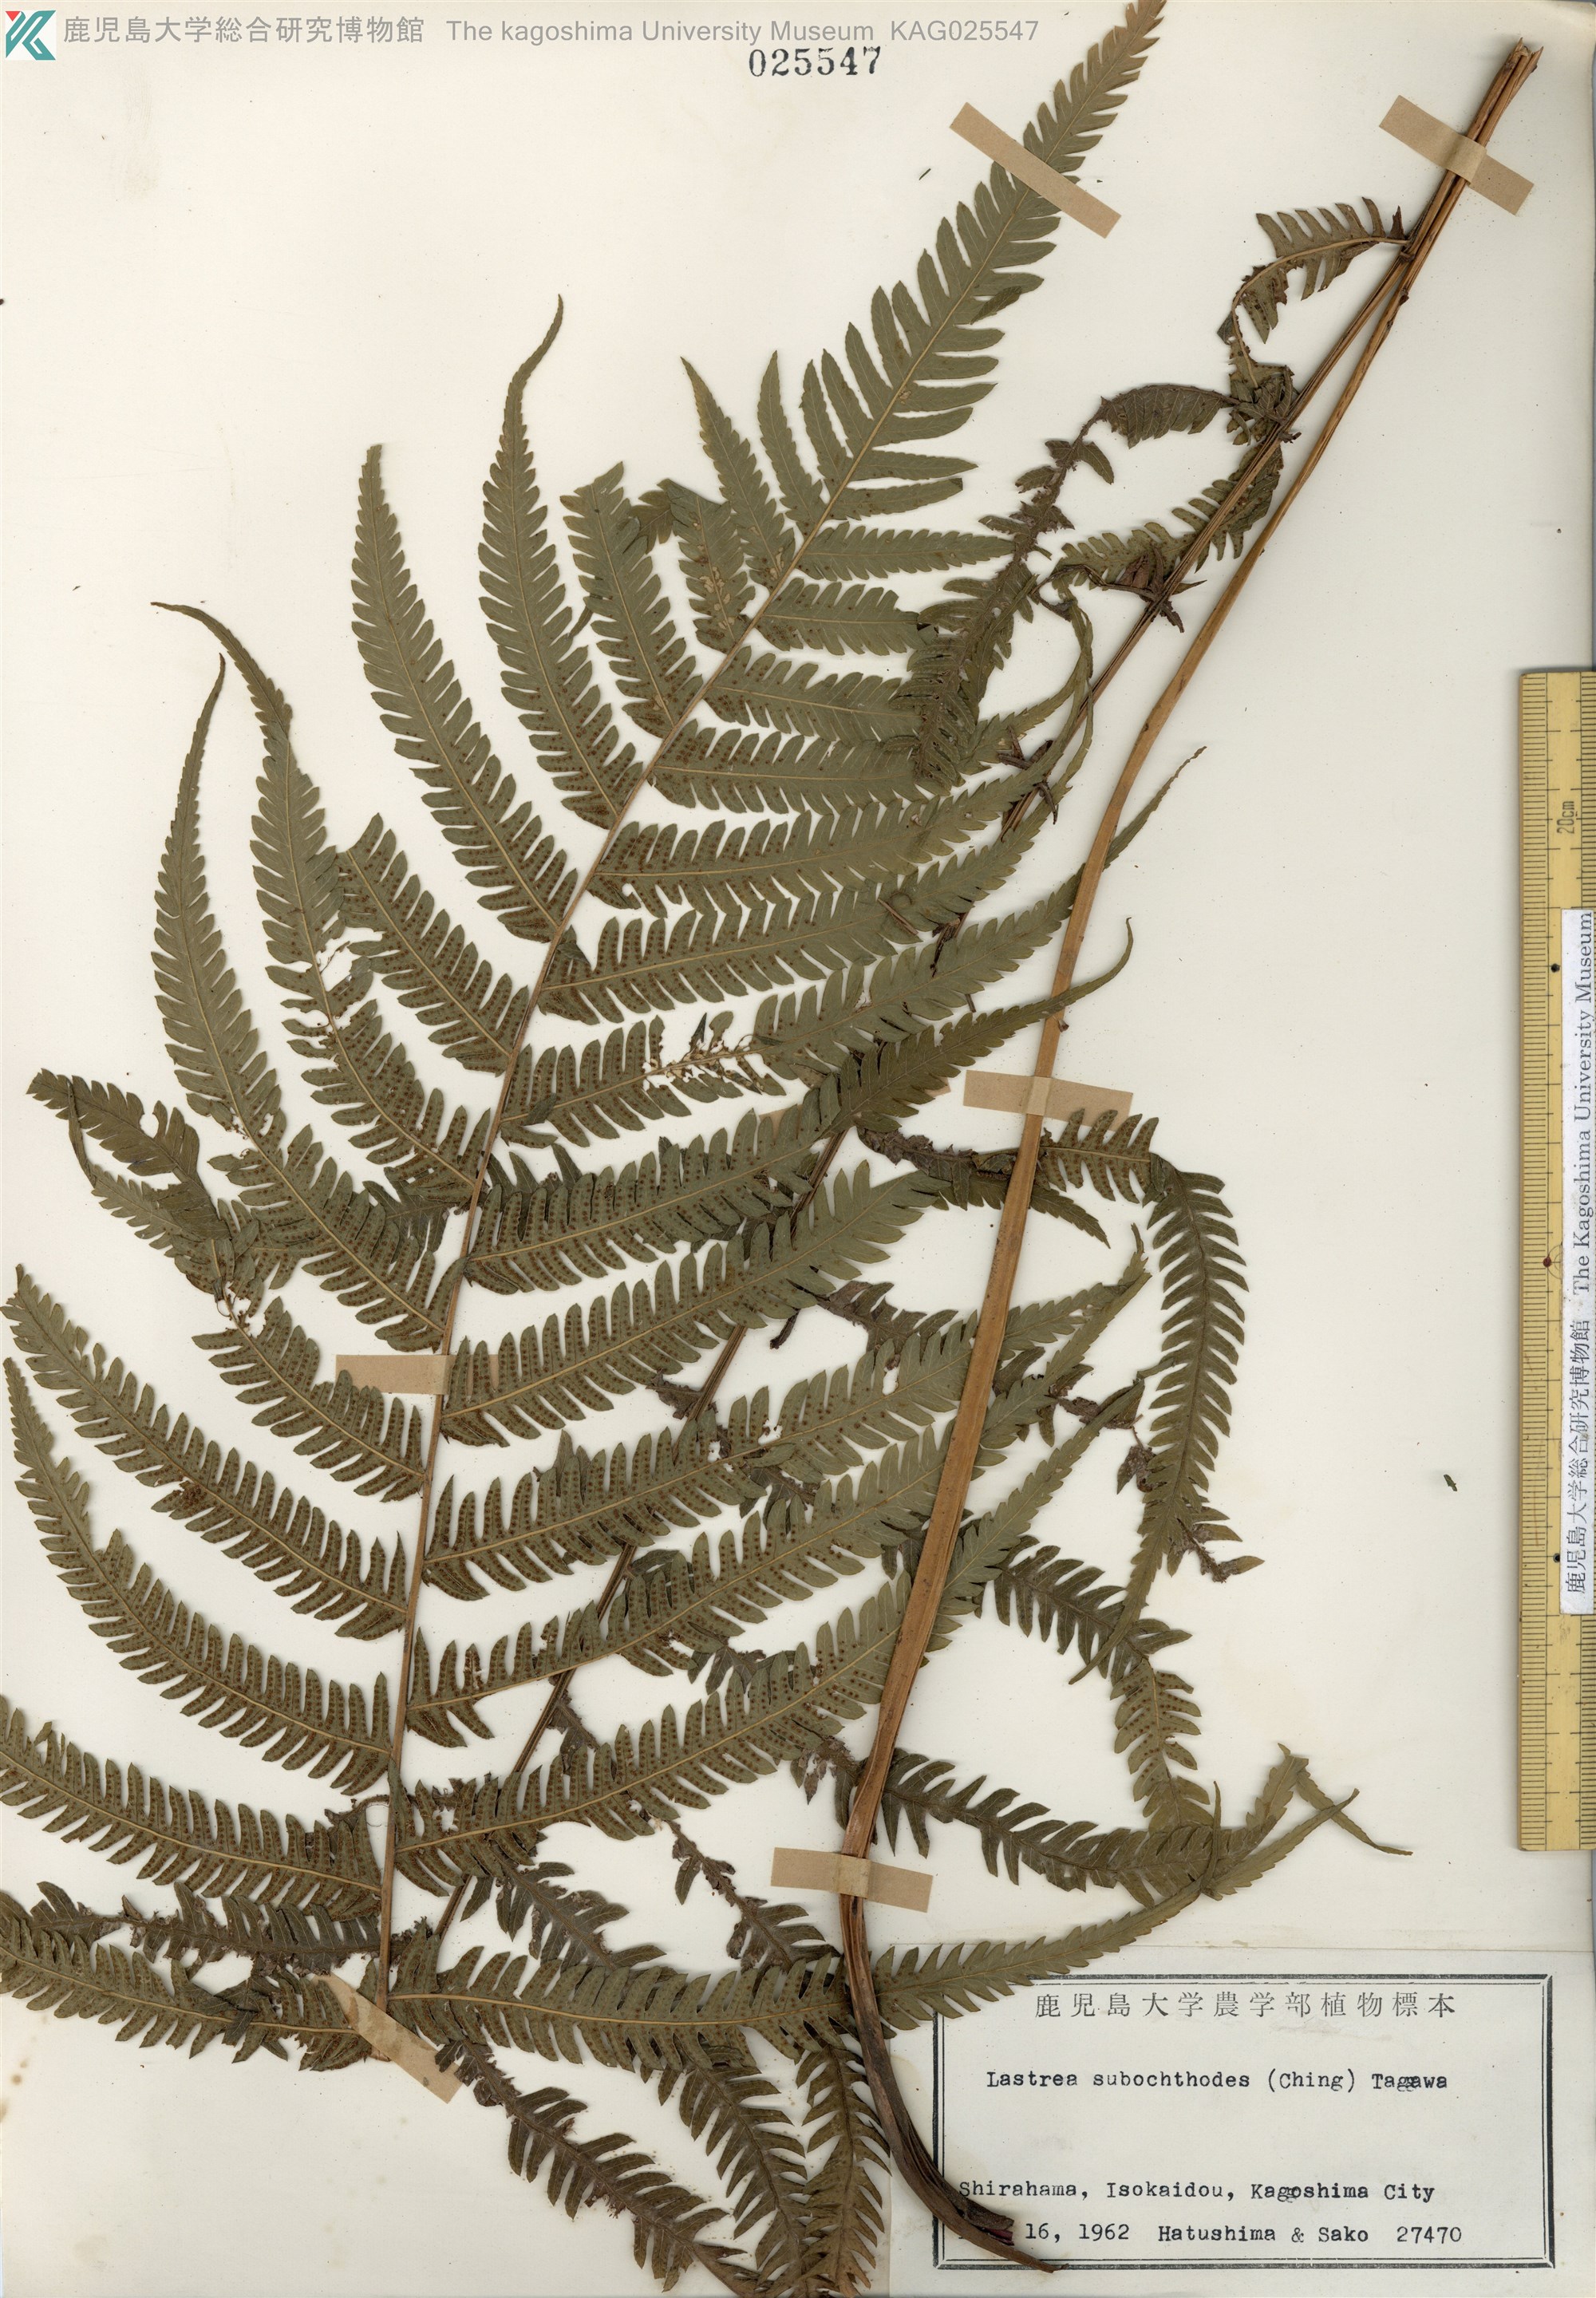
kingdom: Plantae
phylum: Tracheophyta
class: Polypodiopsida
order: Polypodiales
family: Thelypteridaceae
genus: Pseudocyclosorus
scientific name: Pseudocyclosorus esquirolii
